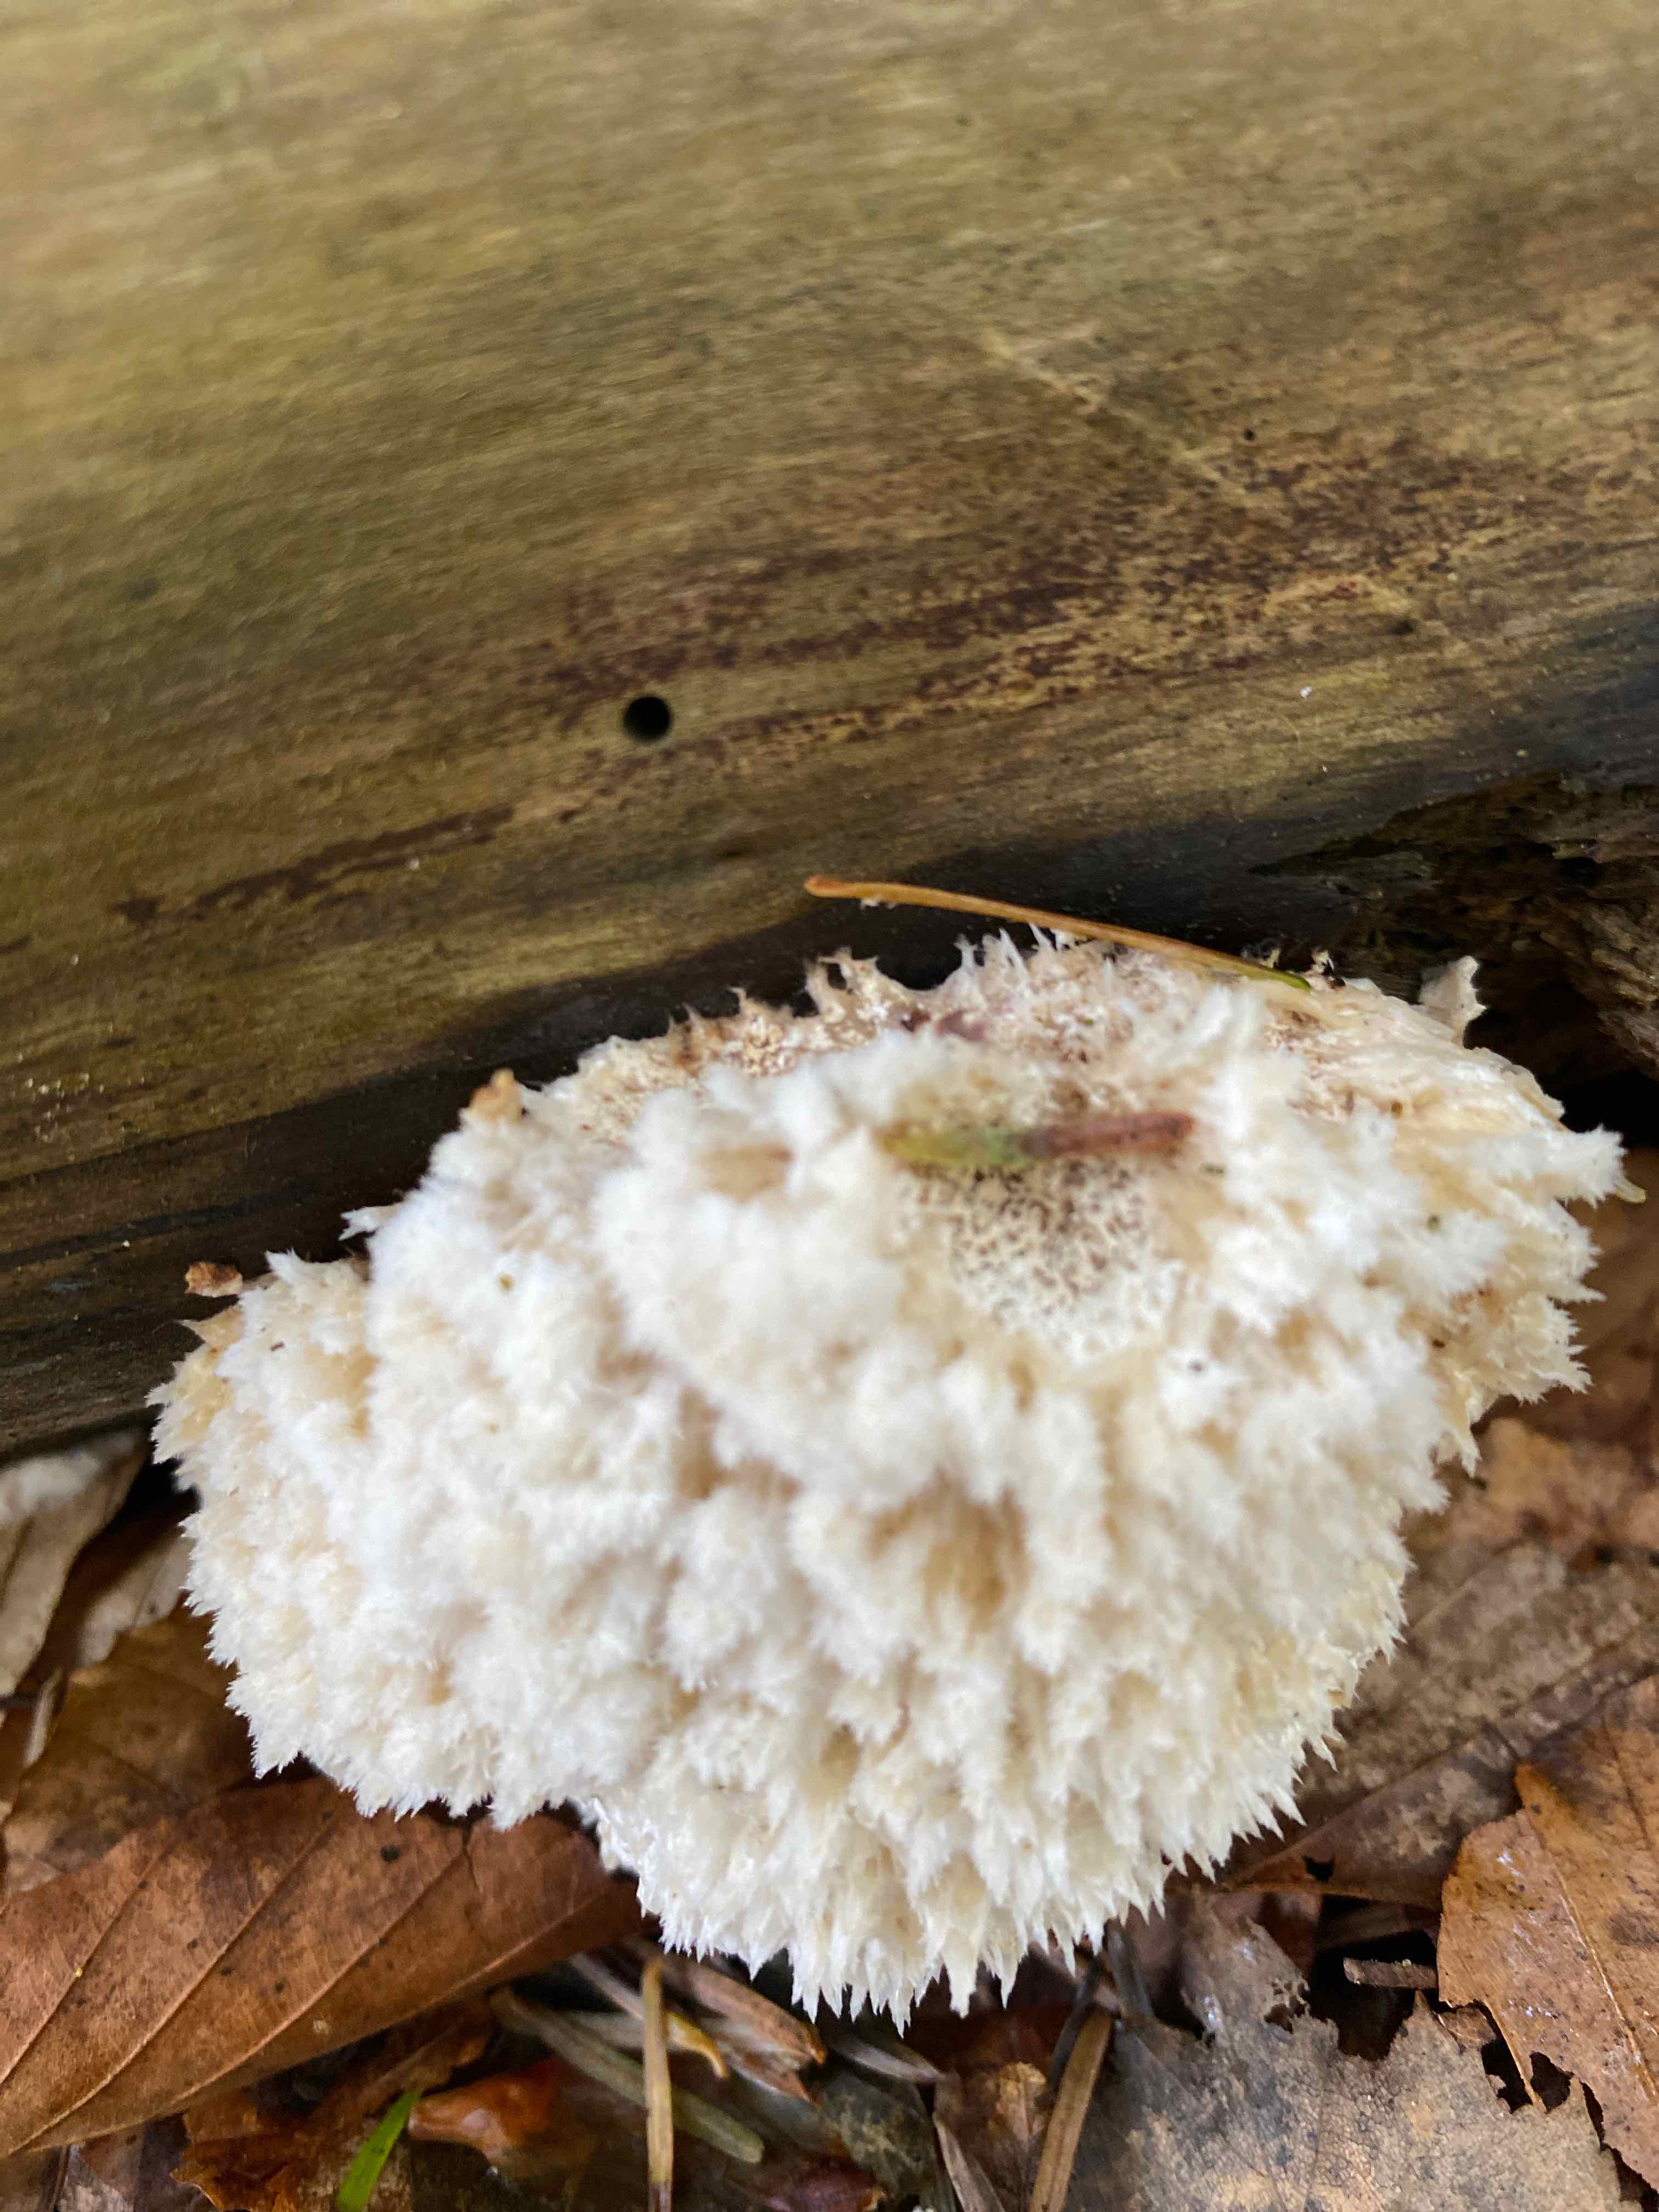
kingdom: Fungi
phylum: Basidiomycota
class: Agaricomycetes
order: Polyporales
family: Dacryobolaceae
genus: Postia
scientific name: Postia ptychogaster
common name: støvende kødporesvamp
